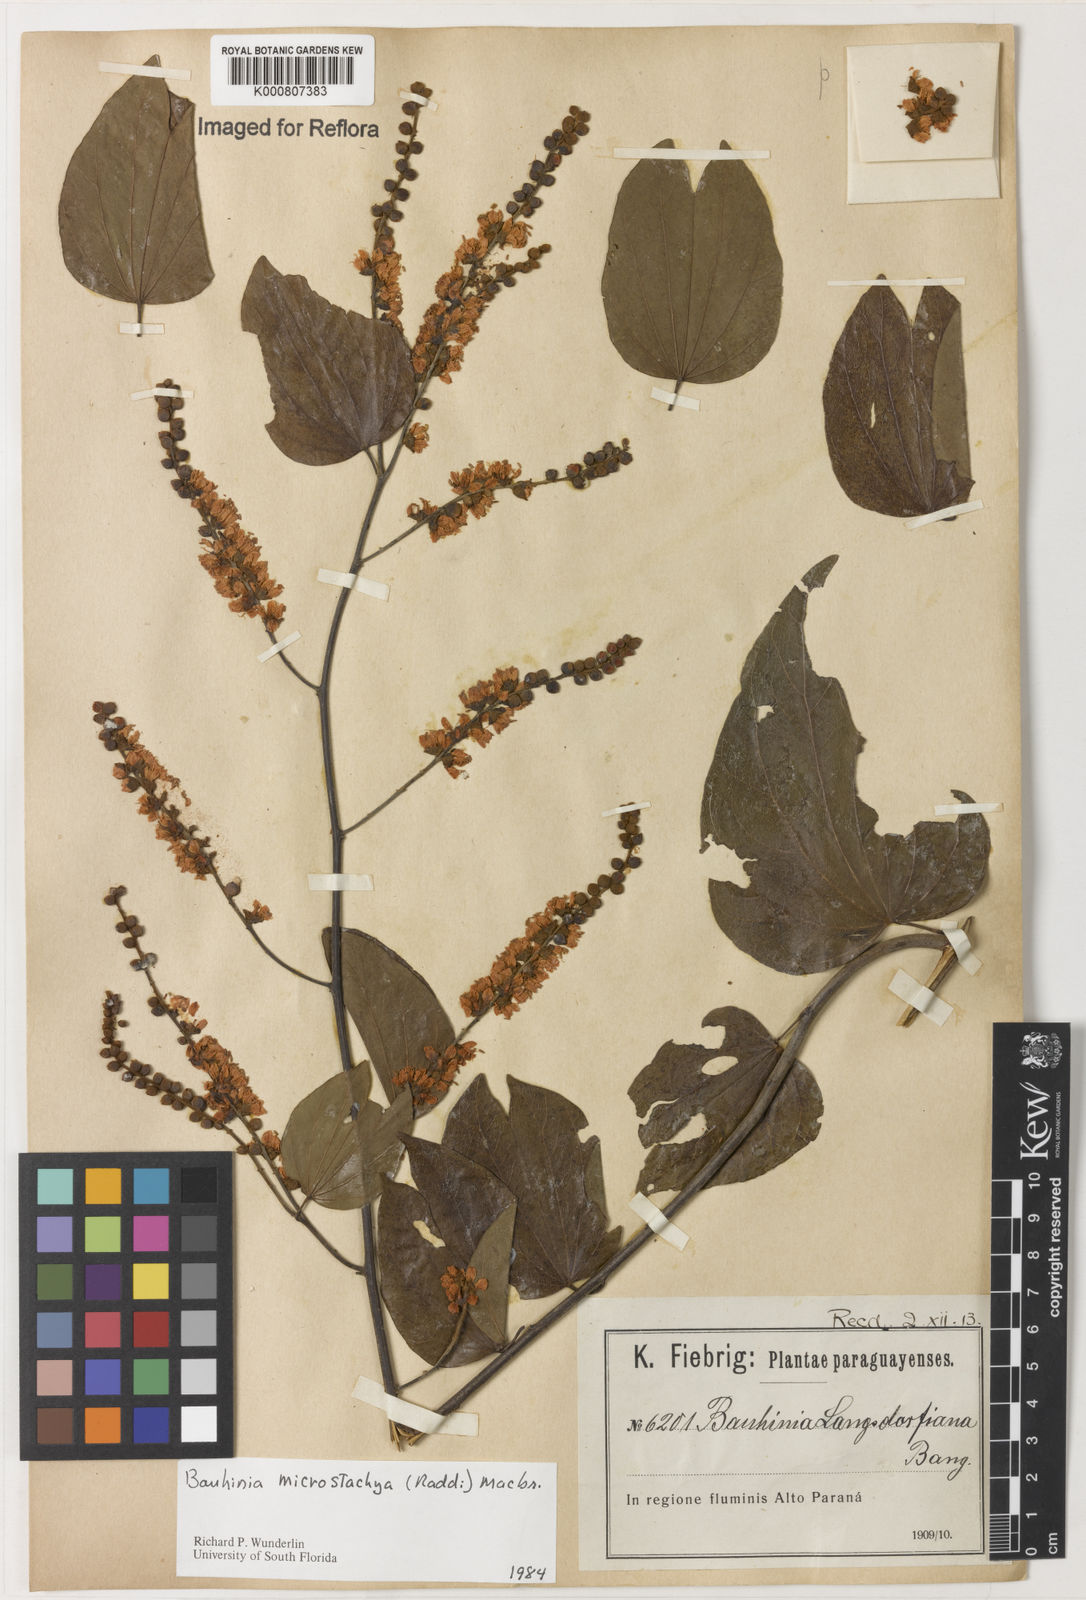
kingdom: Plantae
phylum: Tracheophyta
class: Magnoliopsida
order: Fabales
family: Fabaceae
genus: Schnella
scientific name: Schnella microstachya
